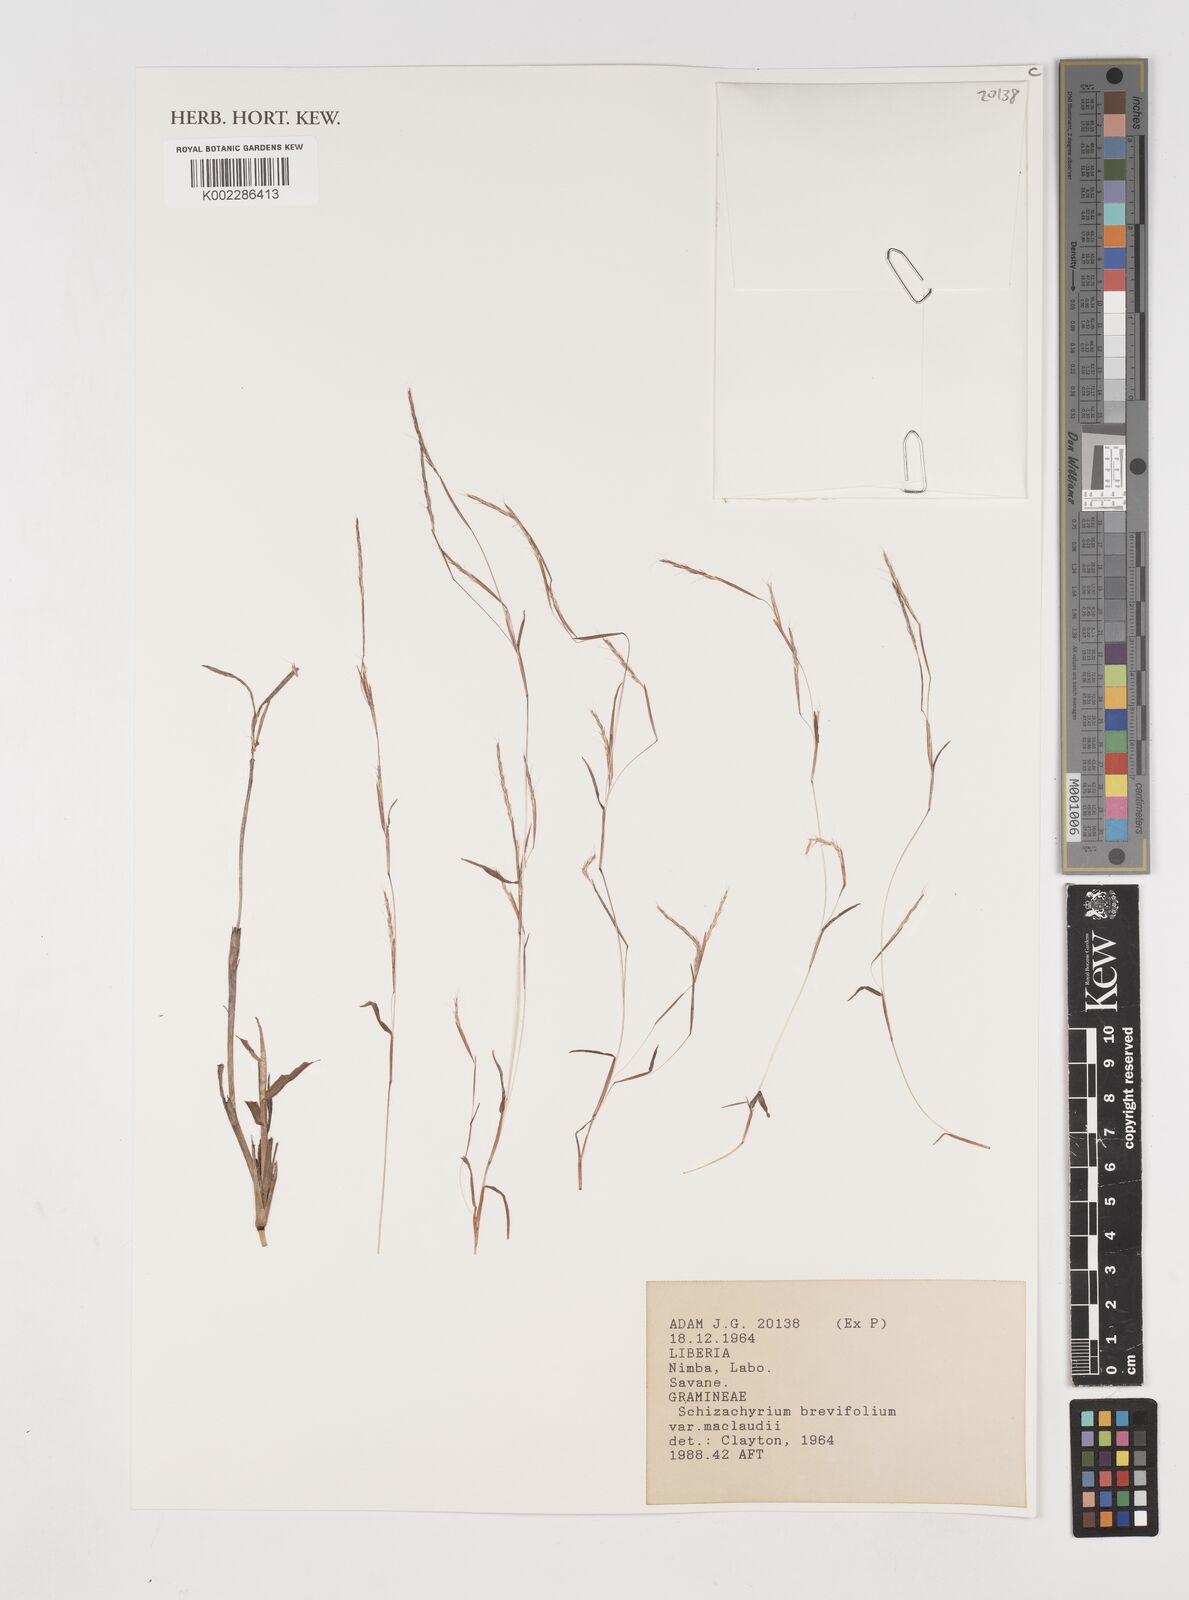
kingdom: Plantae
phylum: Tracheophyta
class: Liliopsida
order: Poales
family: Poaceae
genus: Schizachyrium
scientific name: Schizachyrium maclaudii
